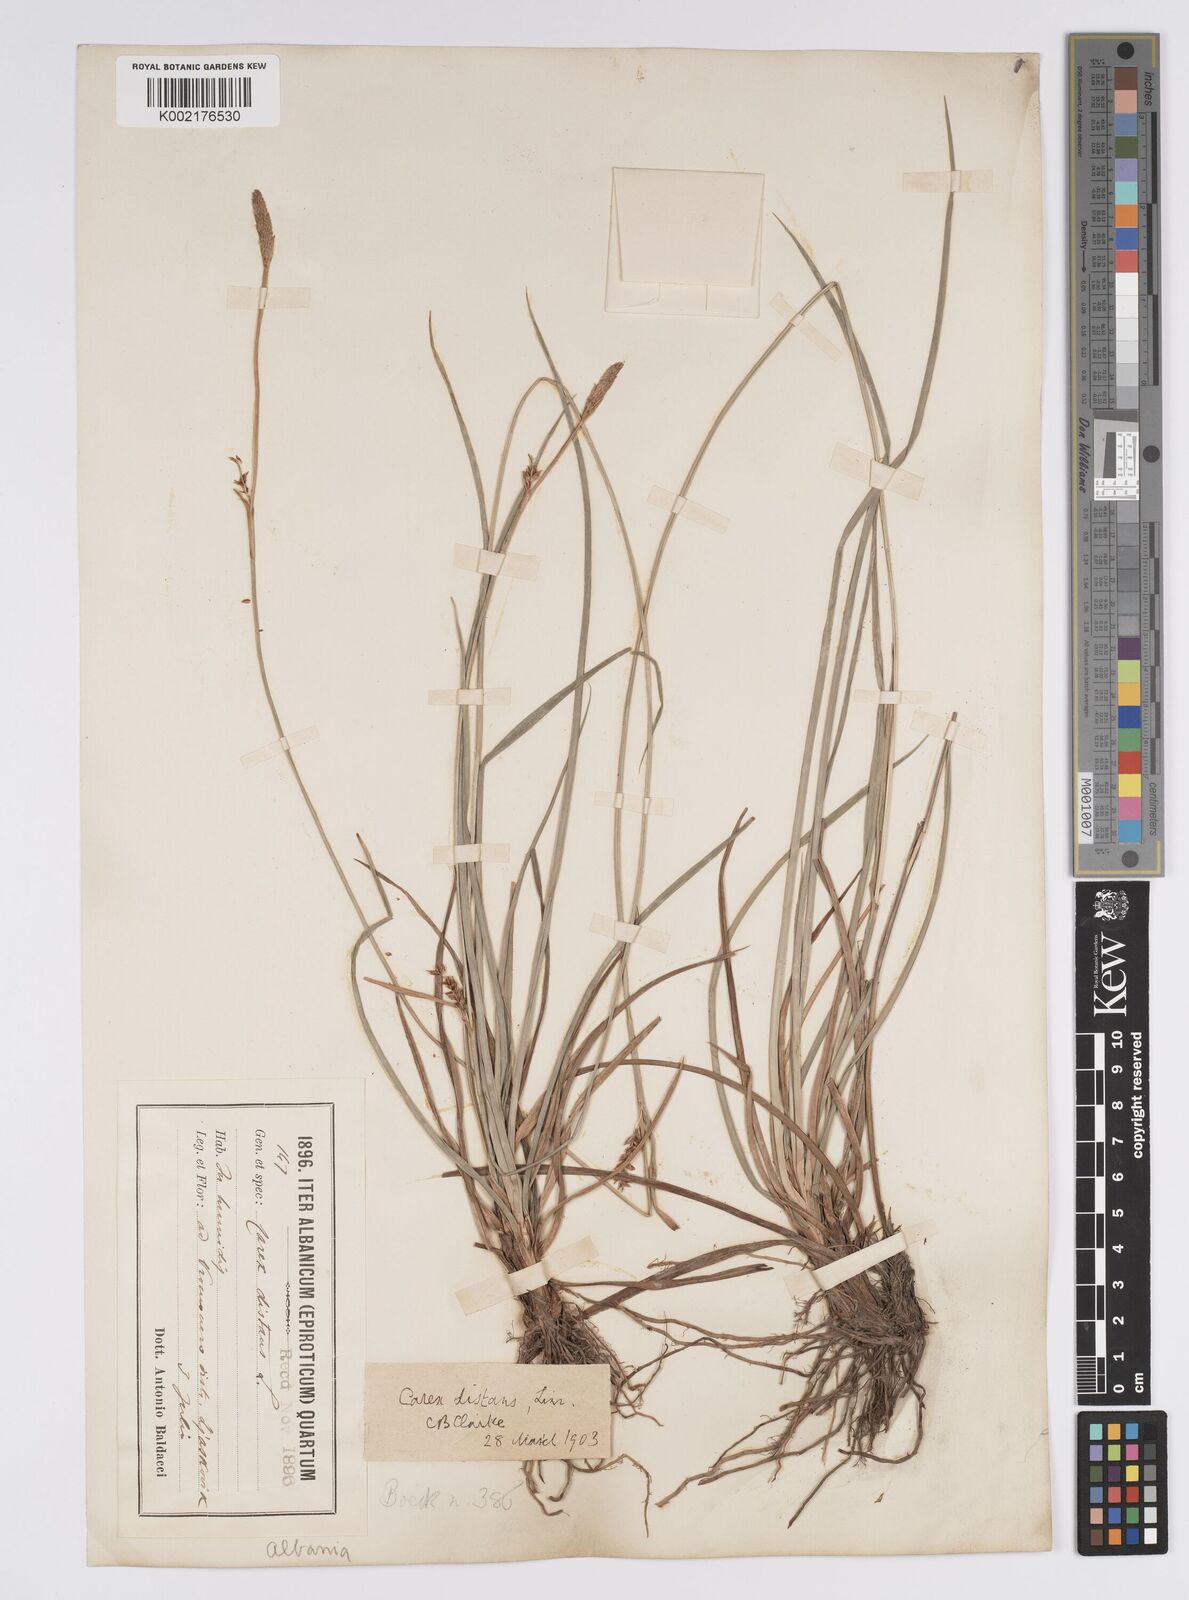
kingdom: Plantae
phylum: Tracheophyta
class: Liliopsida
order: Poales
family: Cyperaceae
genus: Carex
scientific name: Carex distans
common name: Distant sedge
